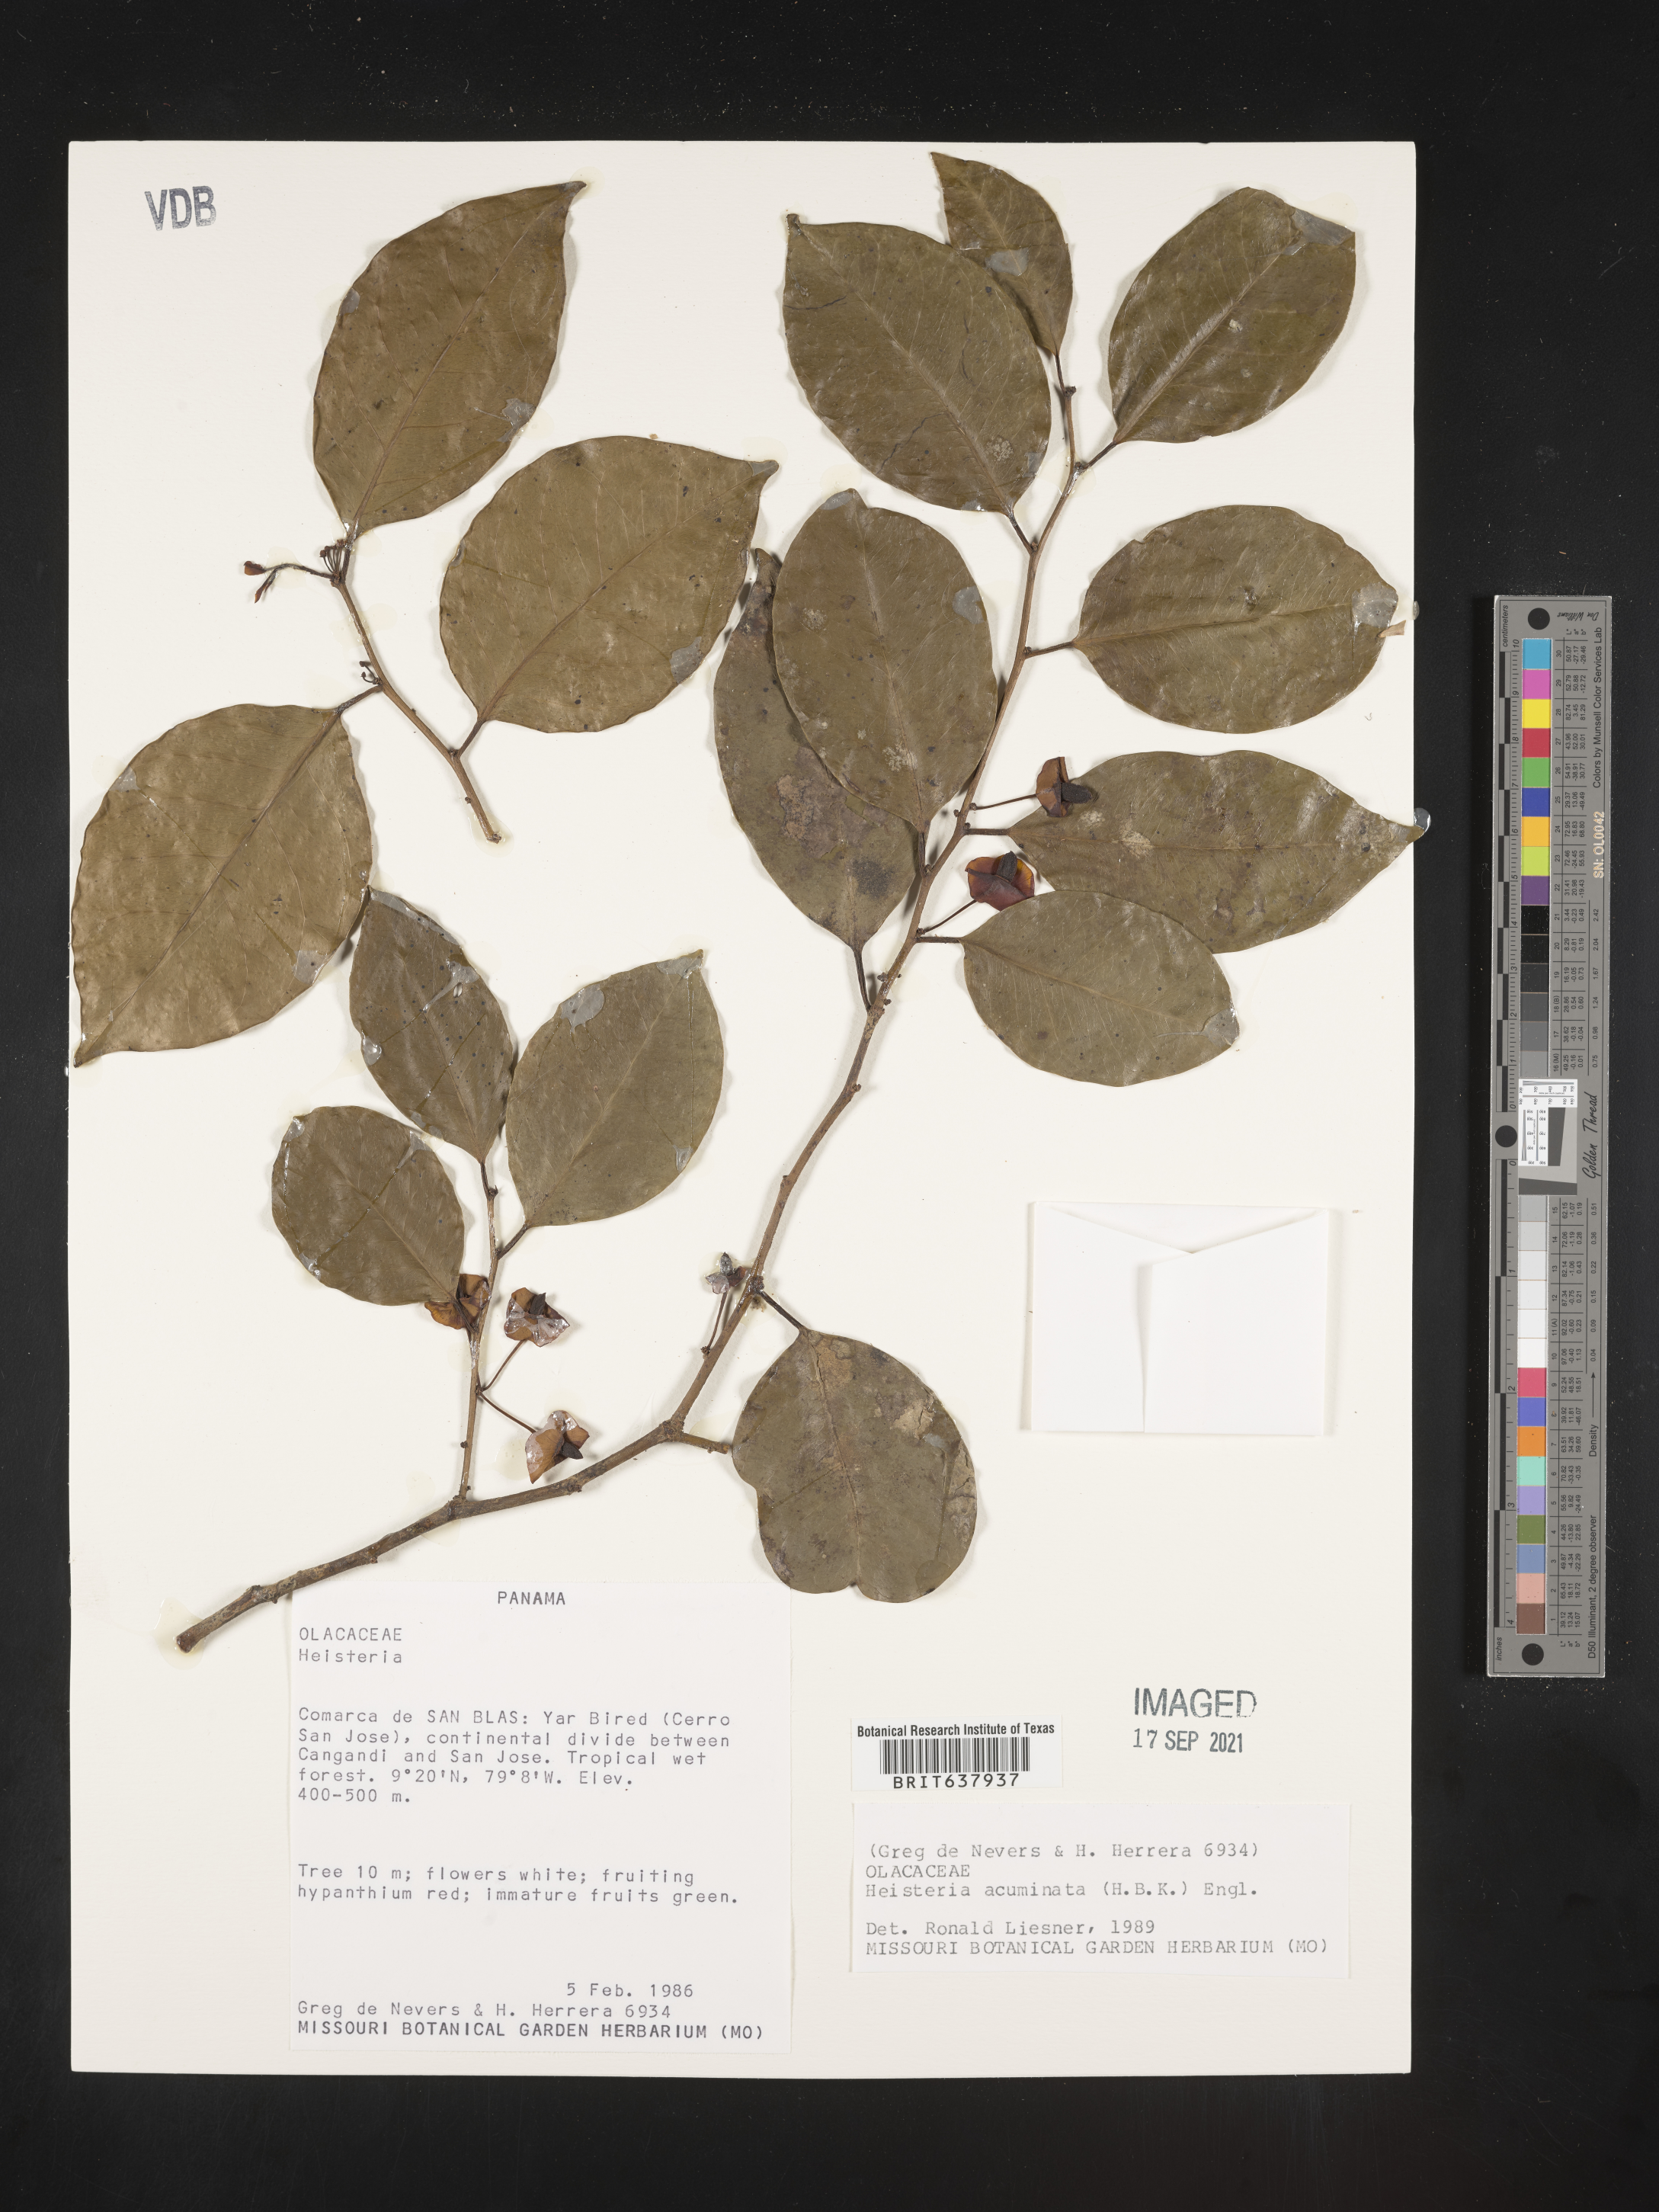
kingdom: Plantae
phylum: Tracheophyta
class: Magnoliopsida
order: Santalales
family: Erythropalaceae
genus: Heisteria
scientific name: Heisteria
